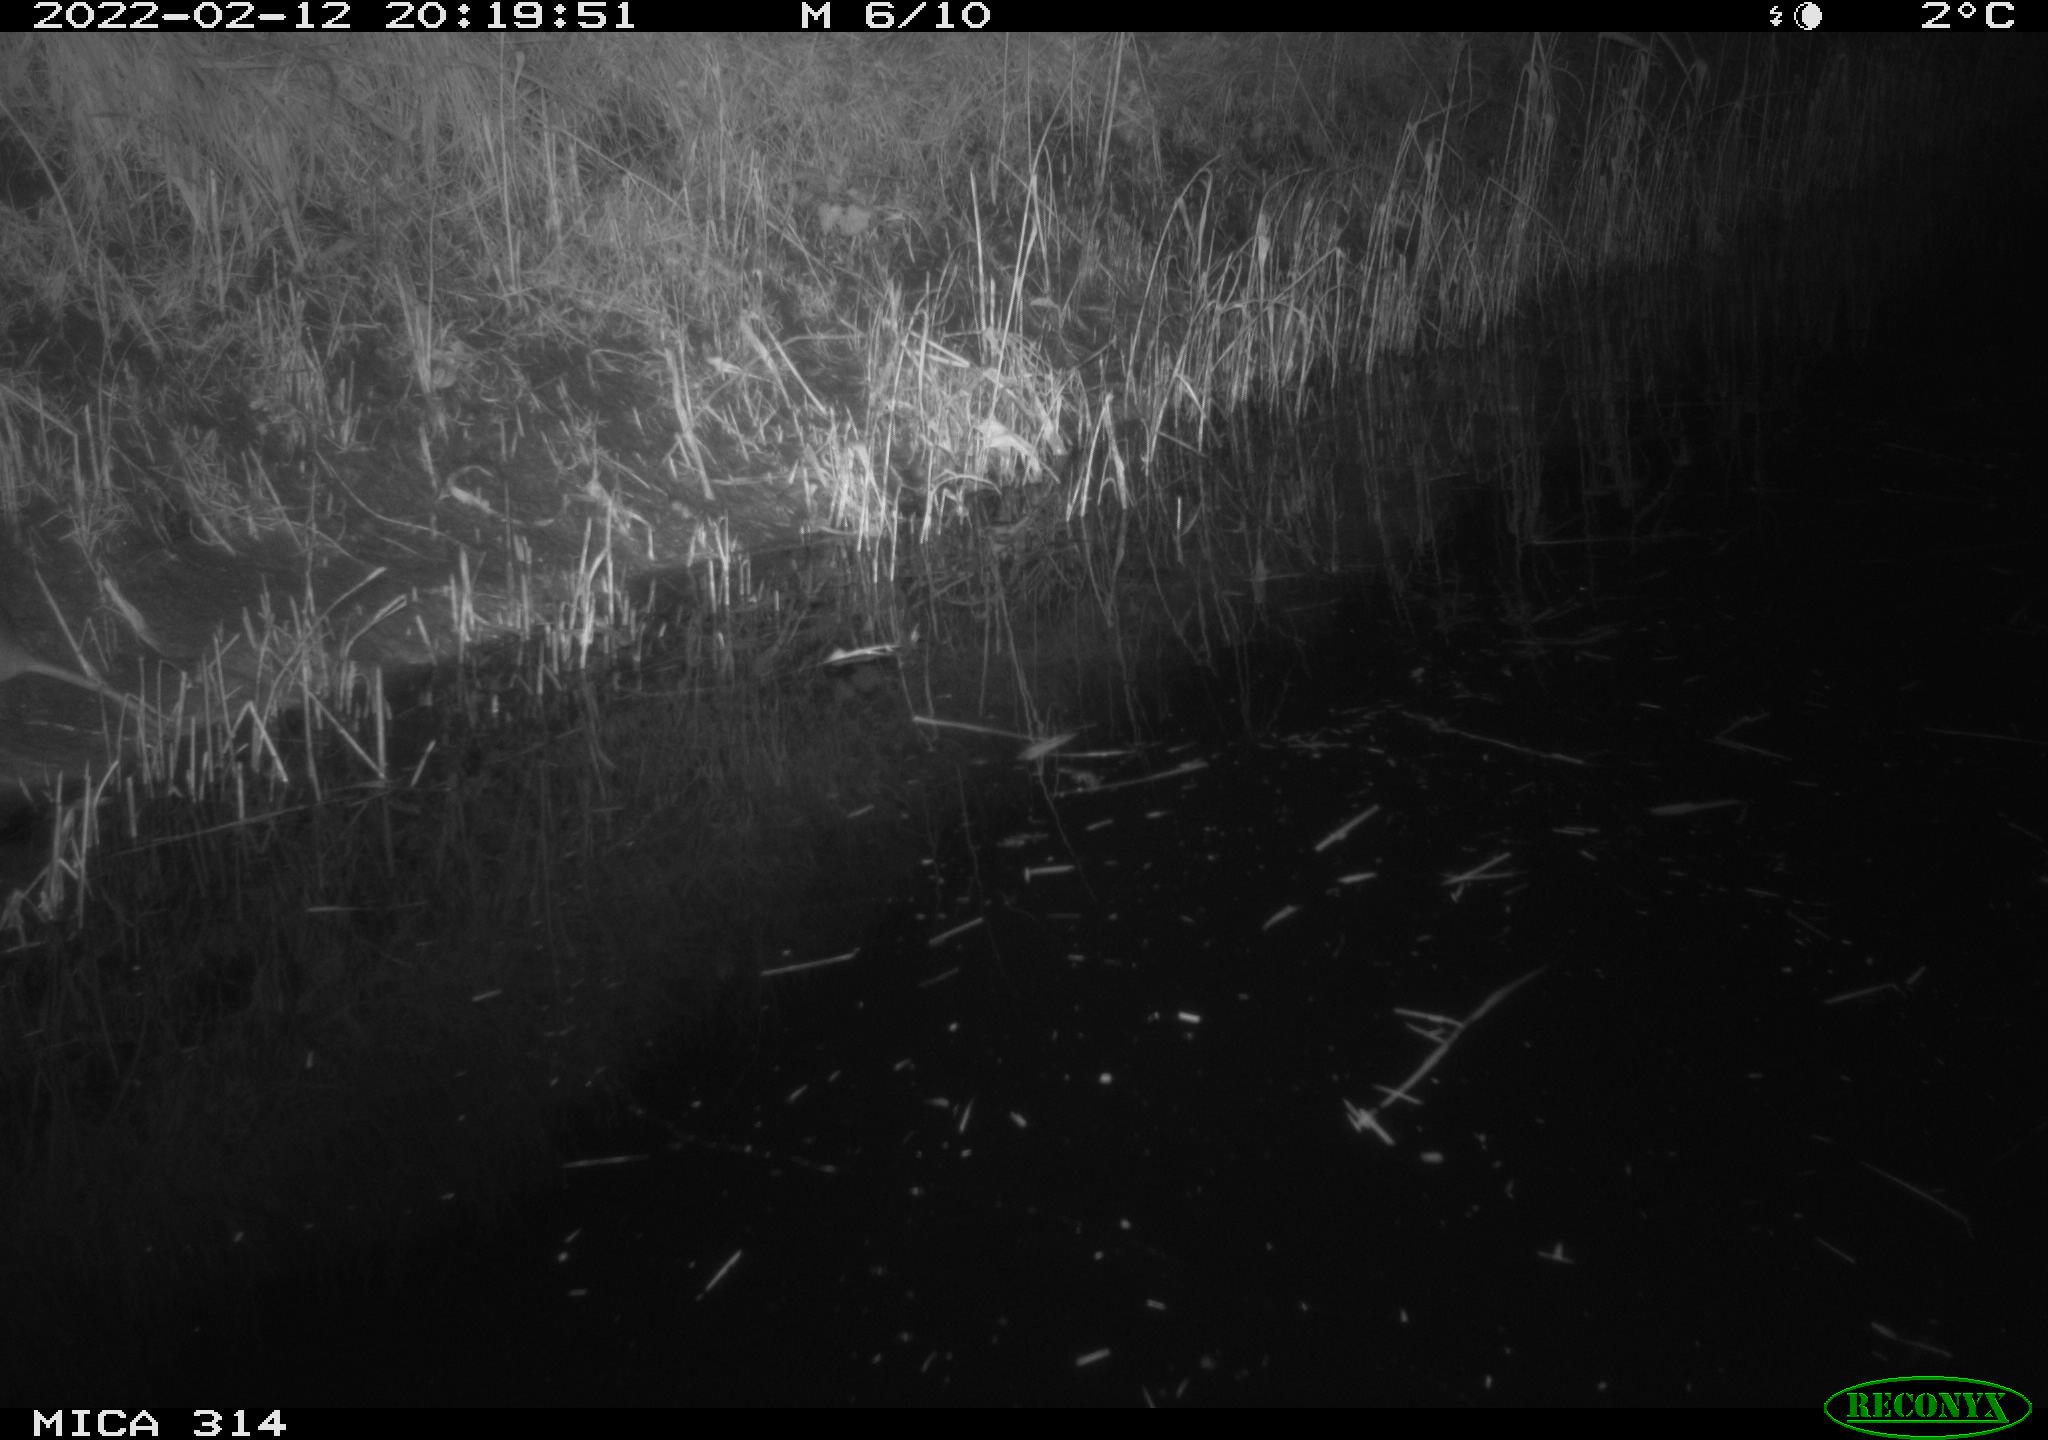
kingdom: Animalia
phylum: Chordata
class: Mammalia
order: Rodentia
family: Muridae
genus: Rattus
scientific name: Rattus norvegicus
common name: Brown rat
